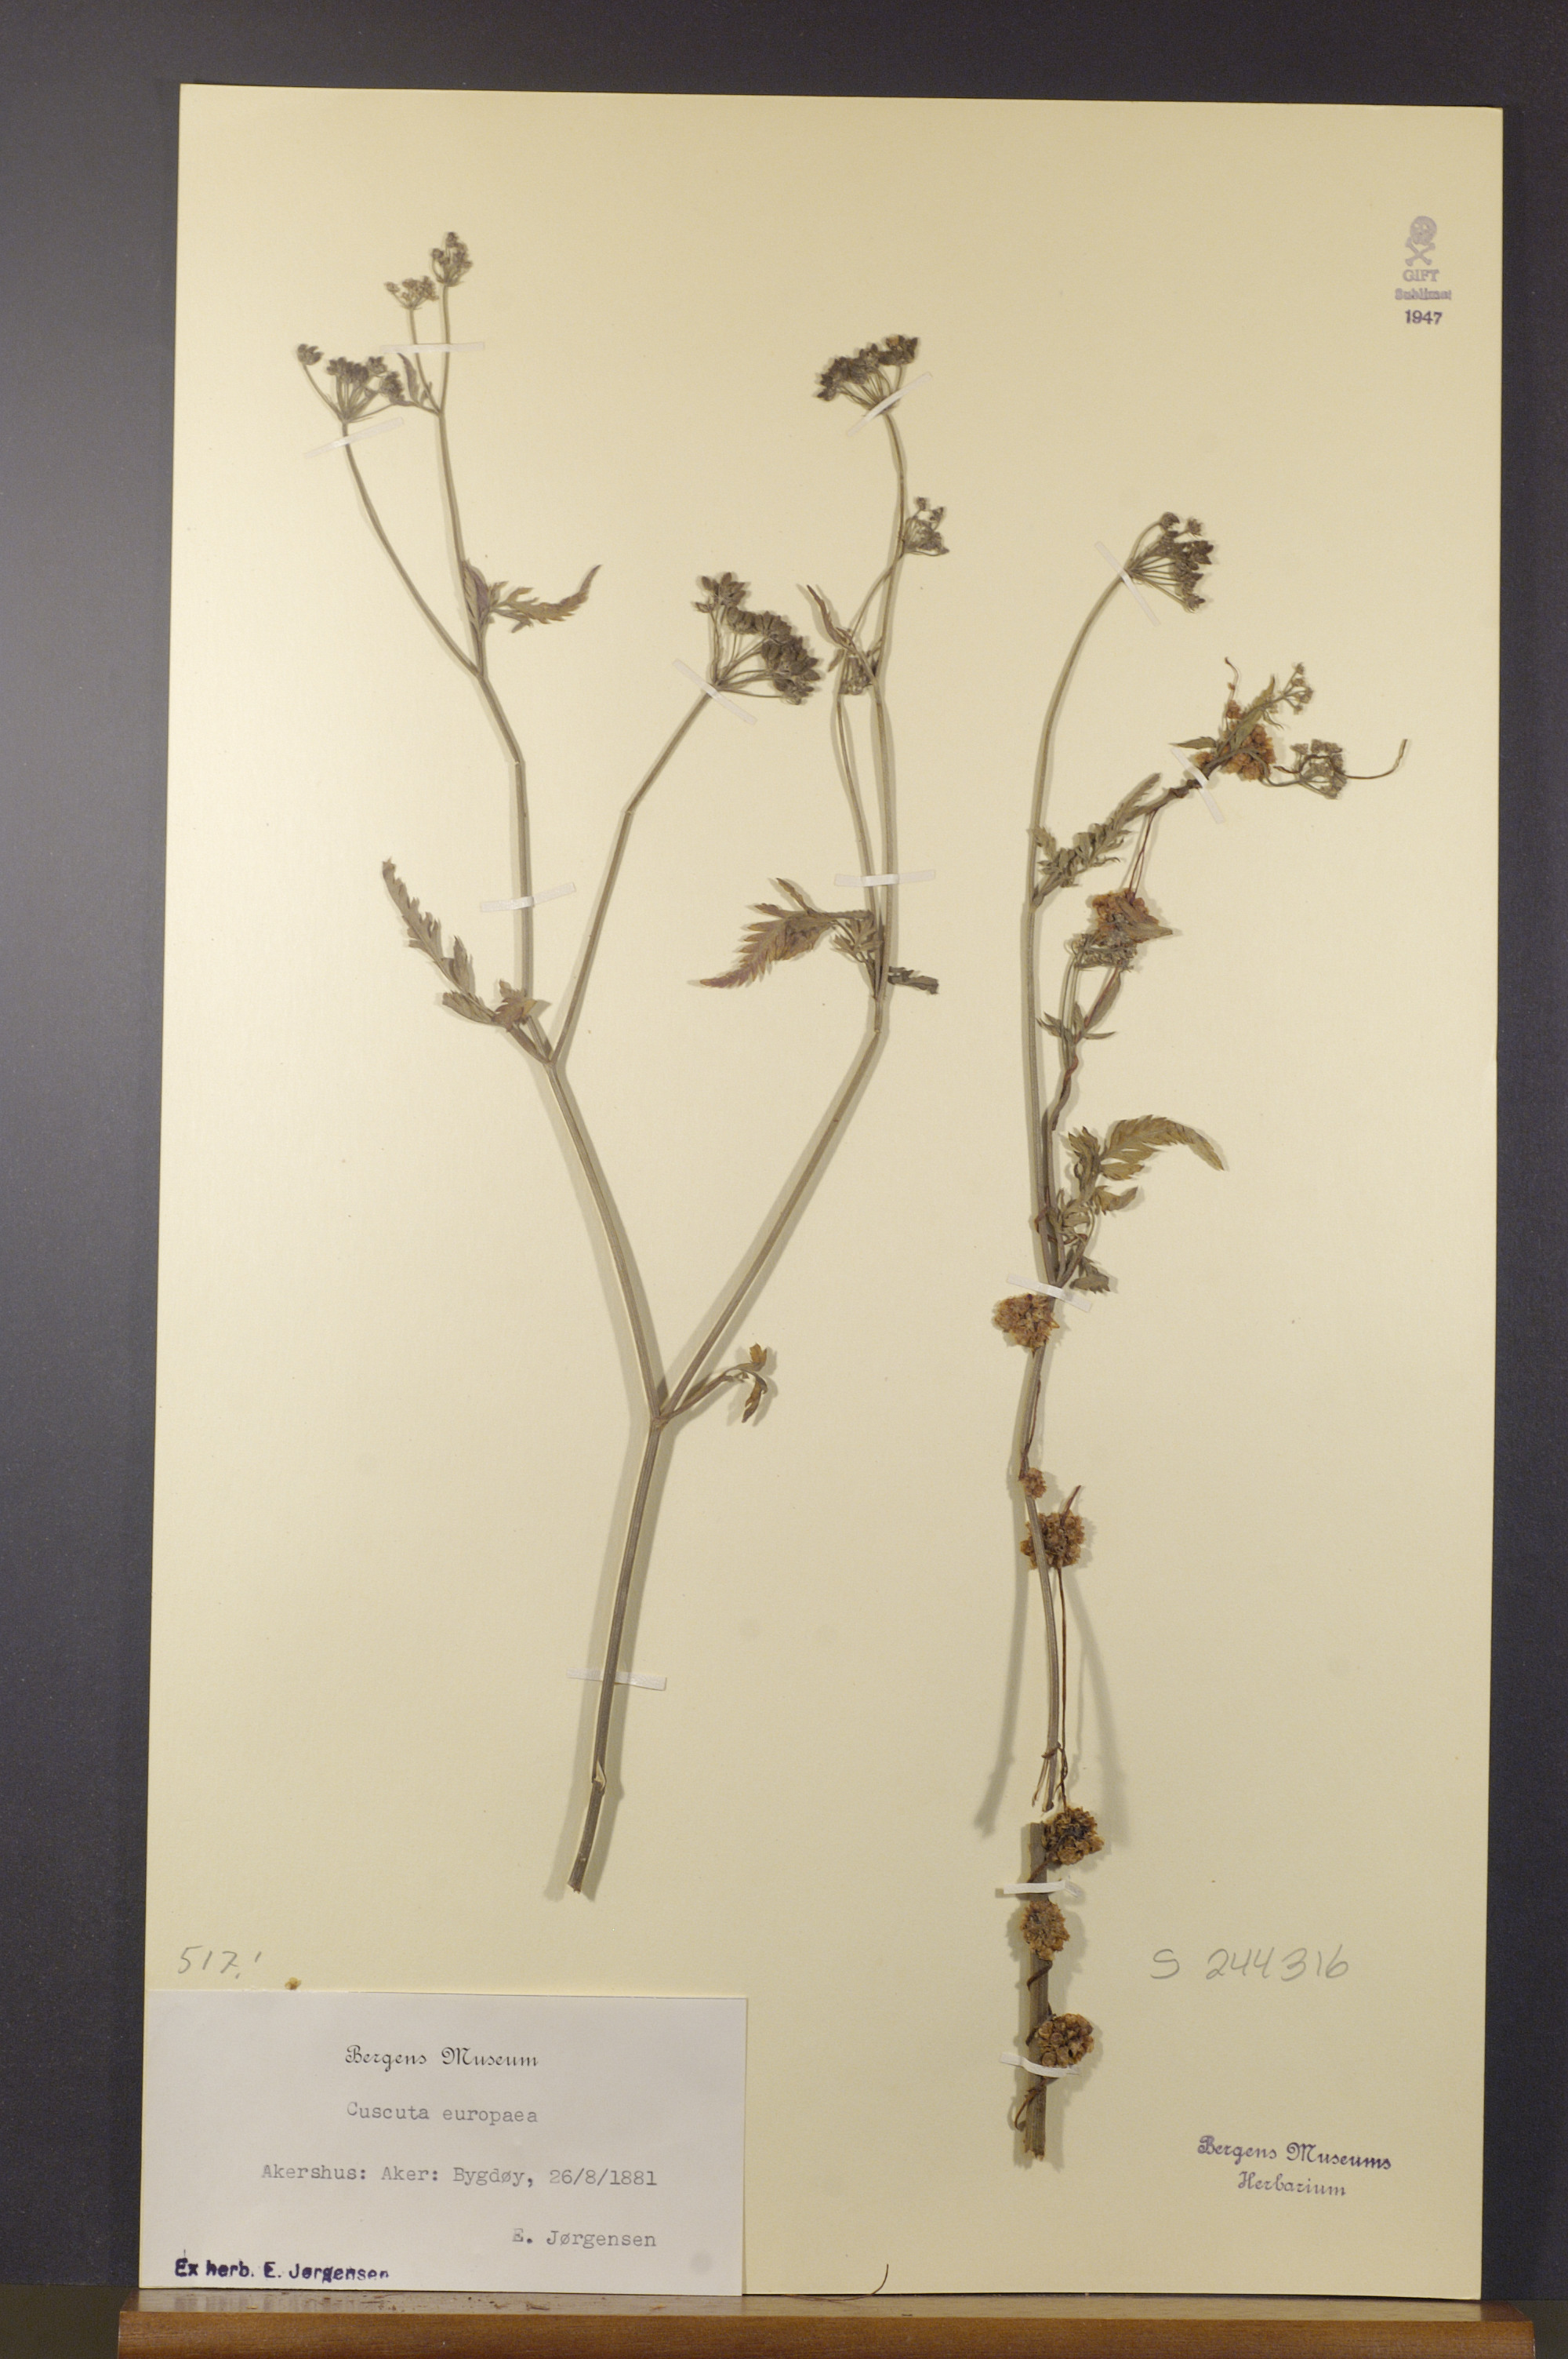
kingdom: Plantae
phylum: Tracheophyta
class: Magnoliopsida
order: Solanales
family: Convolvulaceae
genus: Cuscuta
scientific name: Cuscuta europaea
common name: Greater dodder
